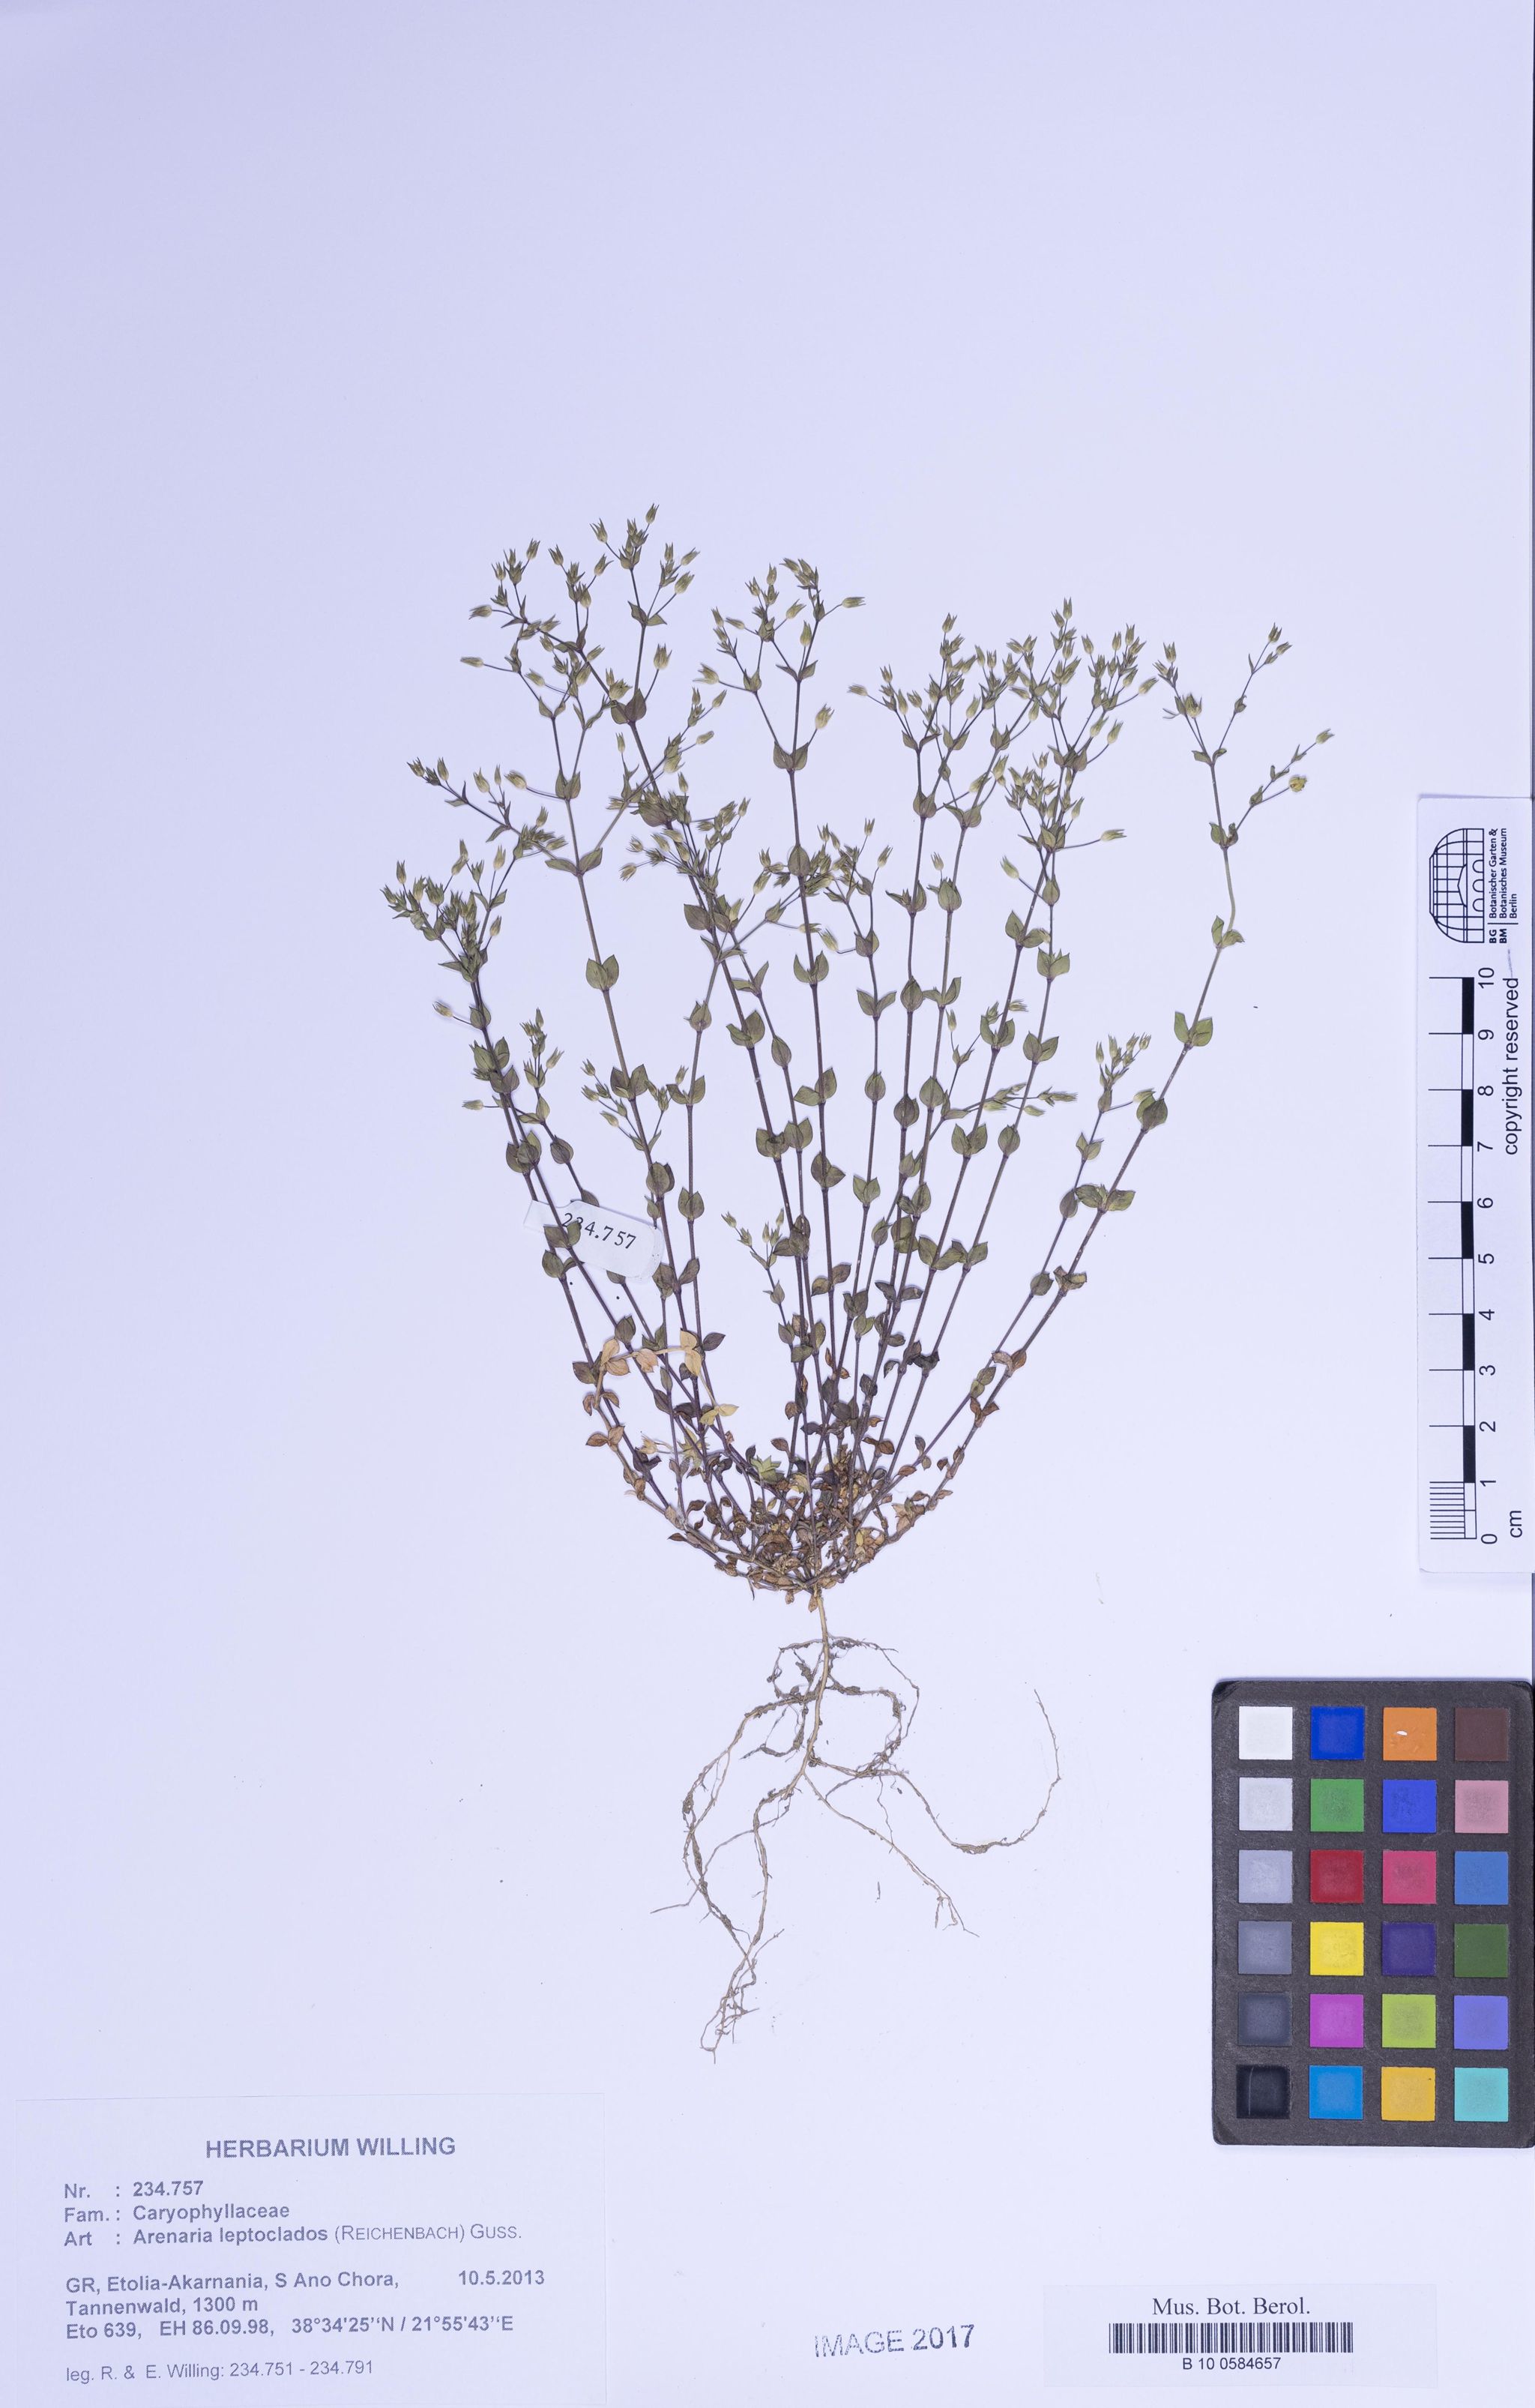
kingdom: Plantae
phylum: Tracheophyta
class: Magnoliopsida
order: Caryophyllales
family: Caryophyllaceae
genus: Arenaria
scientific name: Arenaria leptoclados
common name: Thyme-leaved sandwort
